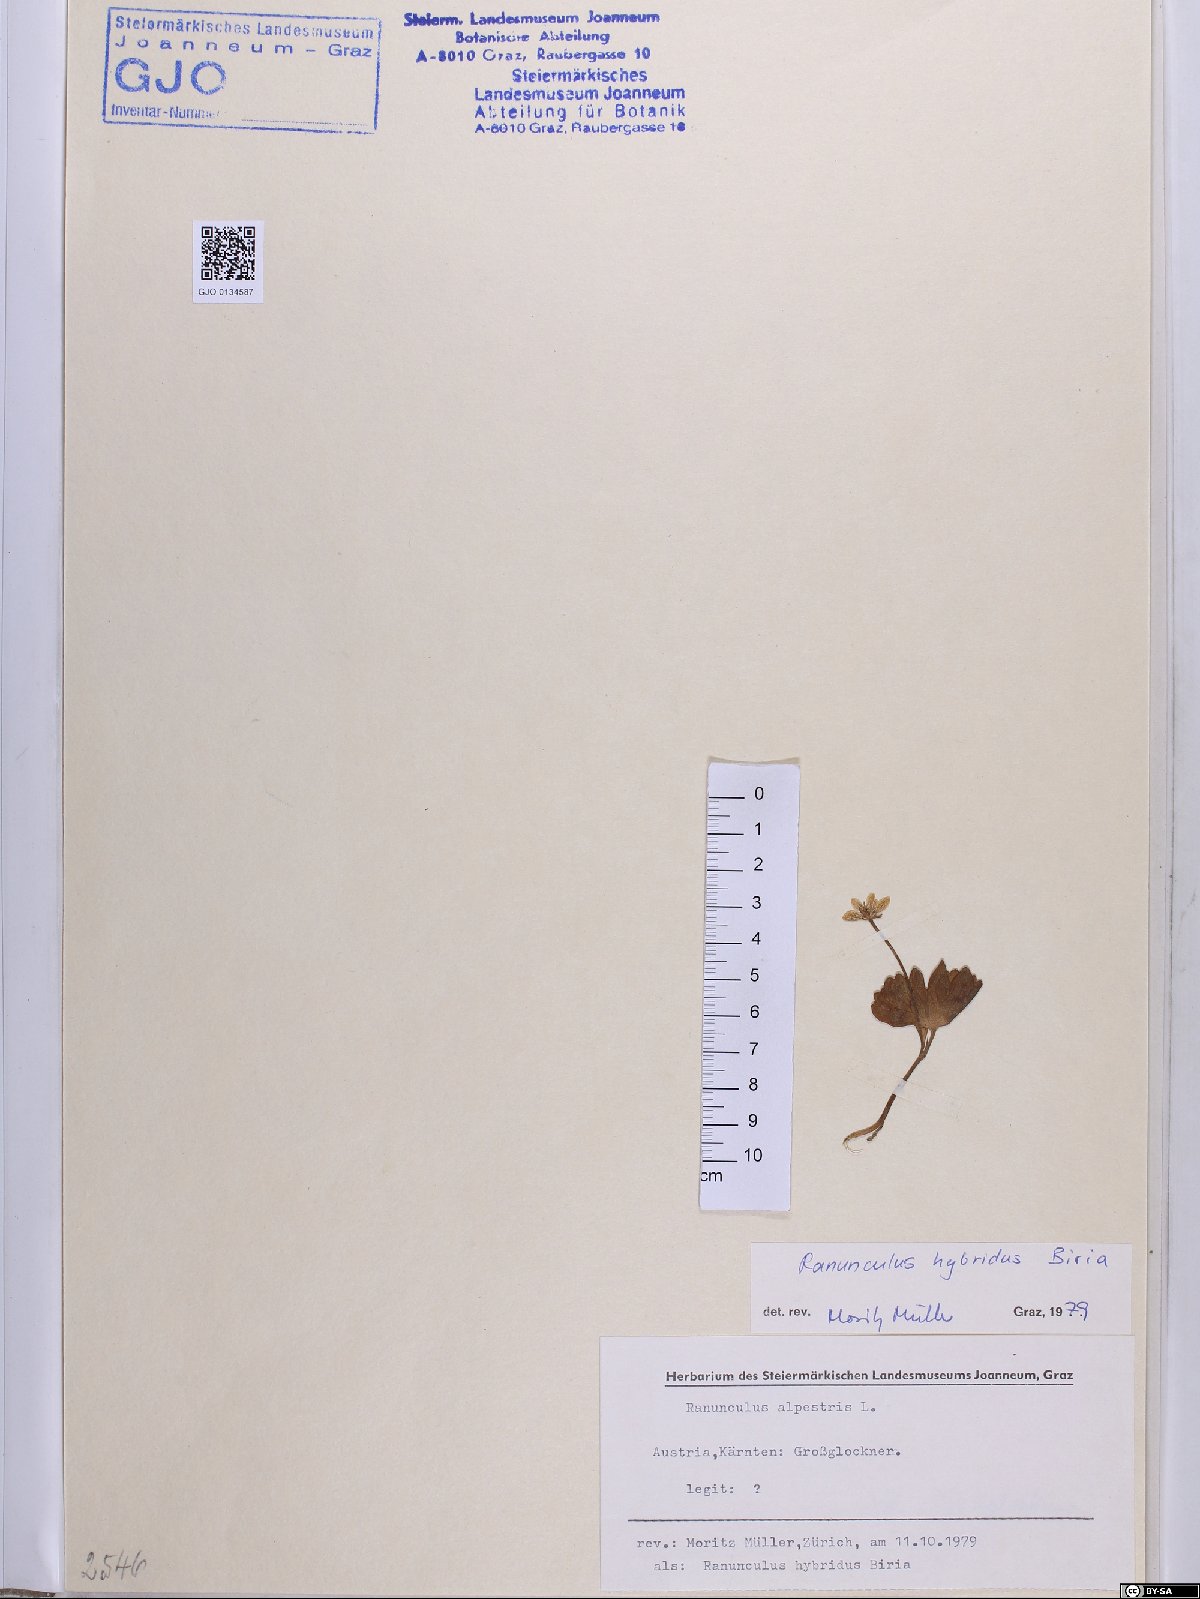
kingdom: Plantae
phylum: Tracheophyta
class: Magnoliopsida
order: Ranunculales
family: Ranunculaceae
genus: Ranunculus
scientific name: Ranunculus hybridus
